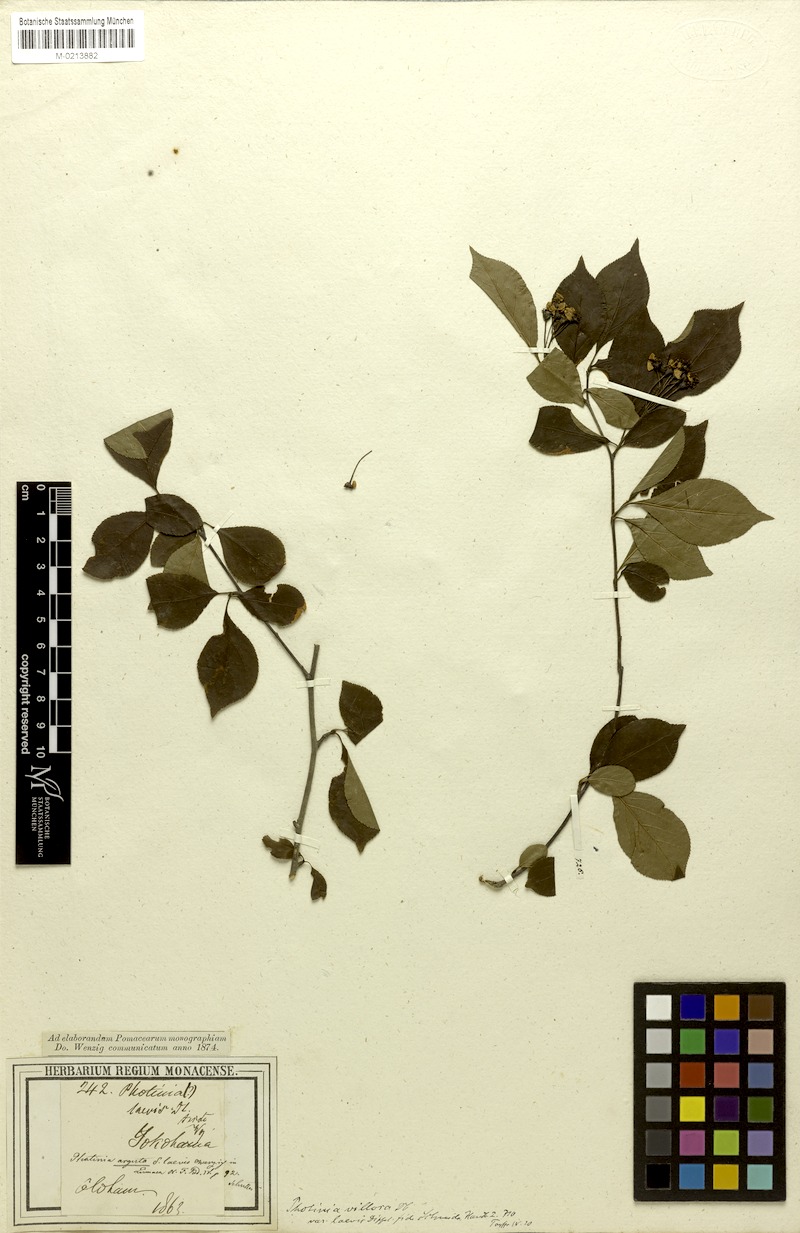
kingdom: Plantae
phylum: Tracheophyta
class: Magnoliopsida
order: Rosales
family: Rosaceae
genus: Pourthiaea
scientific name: Pourthiaea villosa
